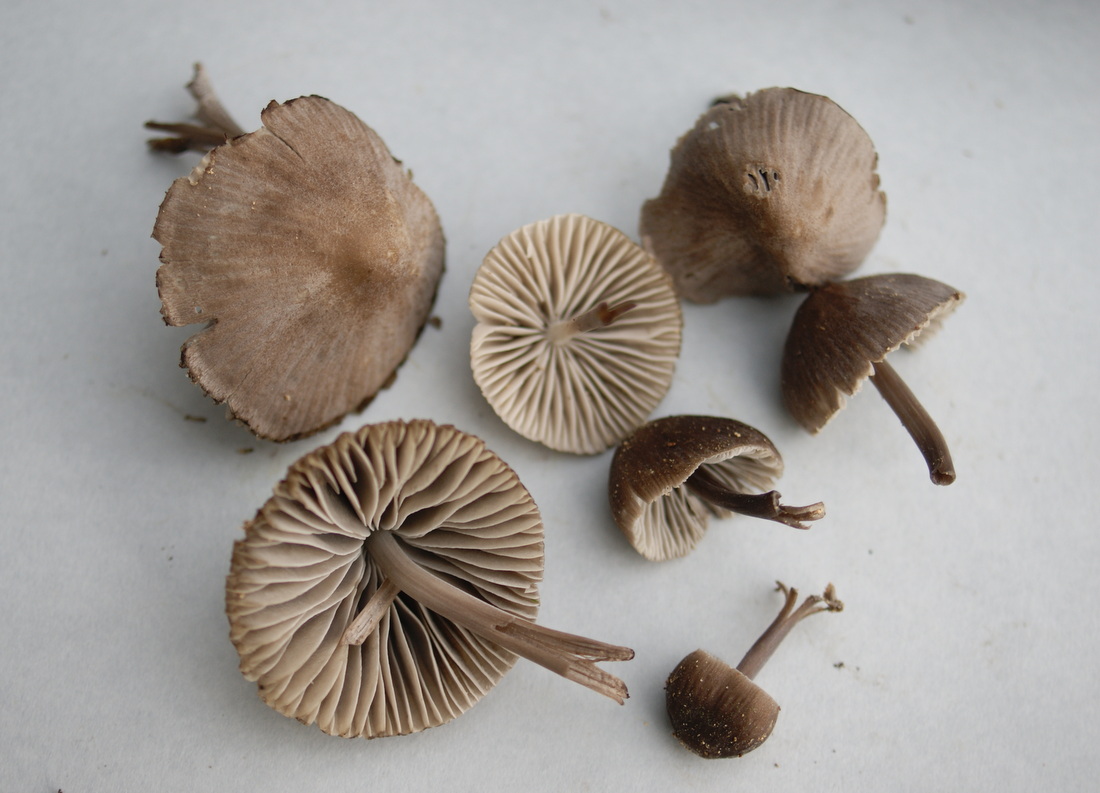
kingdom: Fungi
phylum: Basidiomycota
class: Agaricomycetes
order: Agaricales
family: Mycenaceae
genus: Mycena
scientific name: Mycena abramsii
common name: sommer-huesvamp
